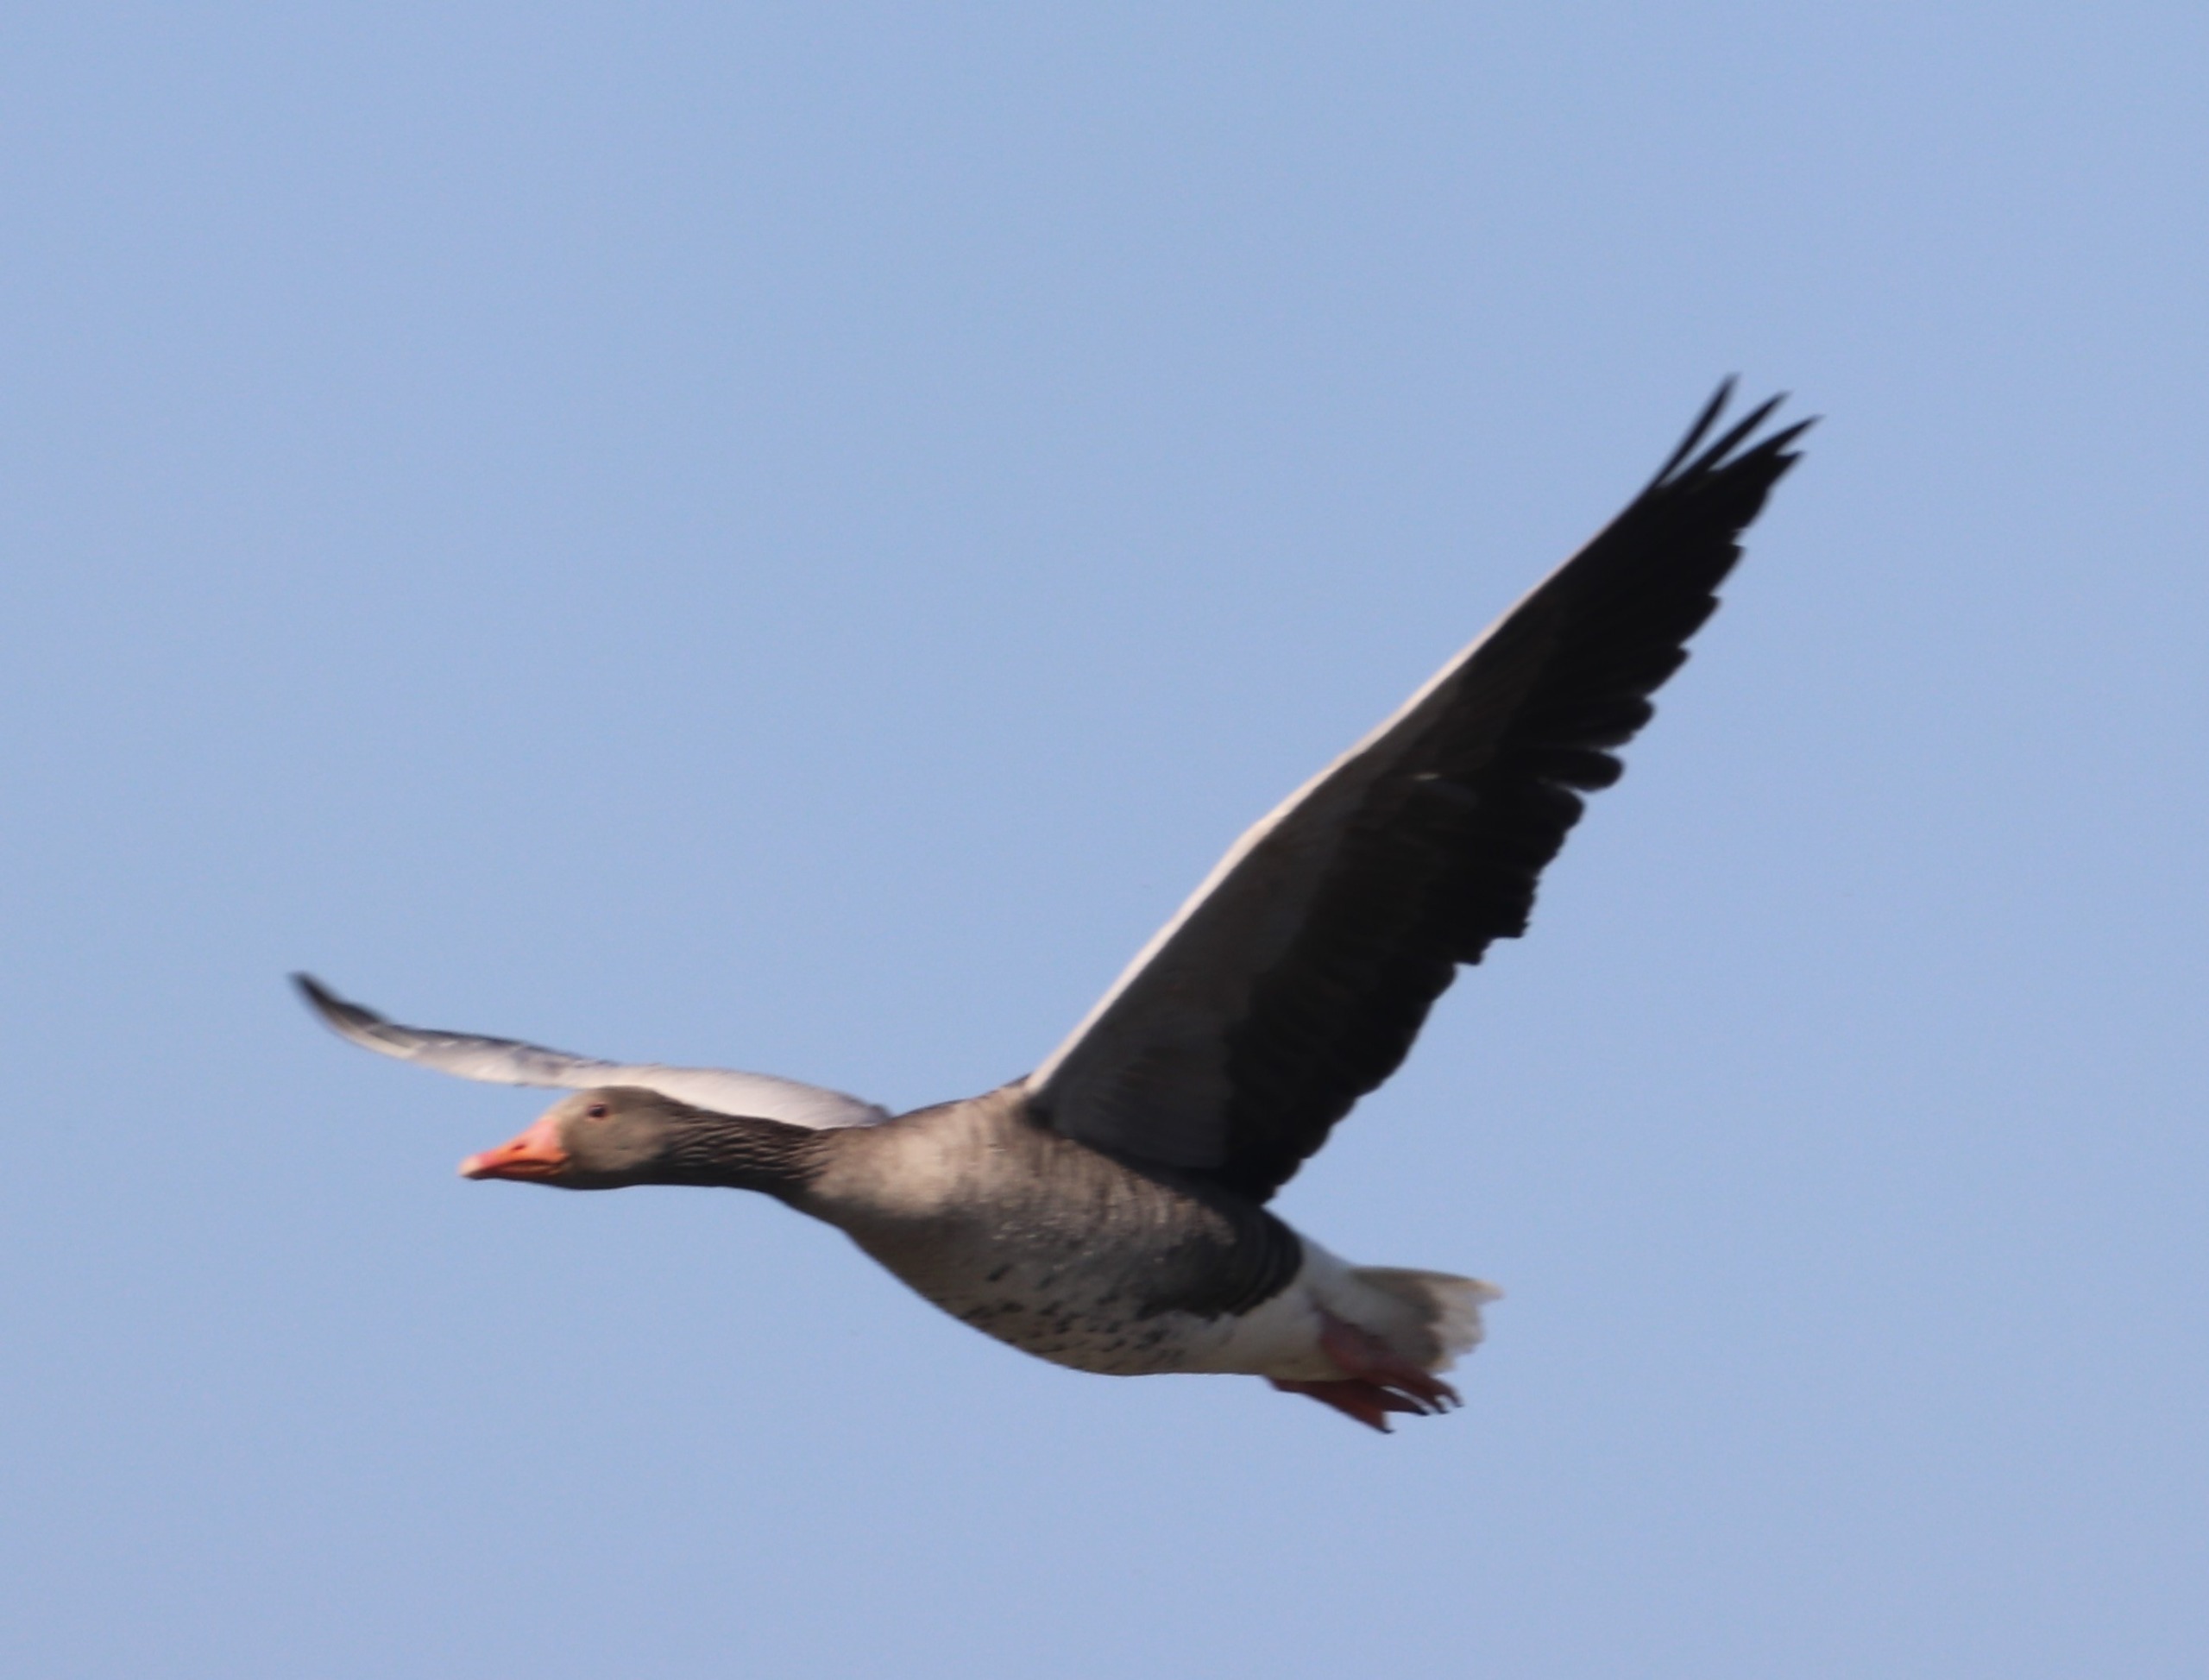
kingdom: Animalia
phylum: Chordata
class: Aves
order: Anseriformes
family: Anatidae
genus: Anser
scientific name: Anser anser
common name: Grågås
